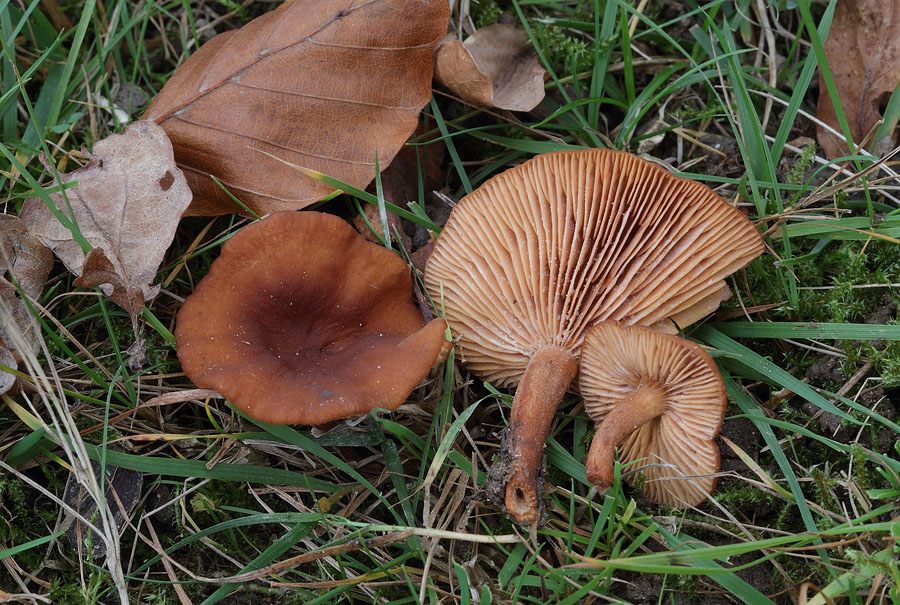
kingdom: Fungi
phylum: Basidiomycota
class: Agaricomycetes
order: Russulales
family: Russulaceae
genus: Lactarius
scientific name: Lactarius serifluus
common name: tæge-mælkehat
